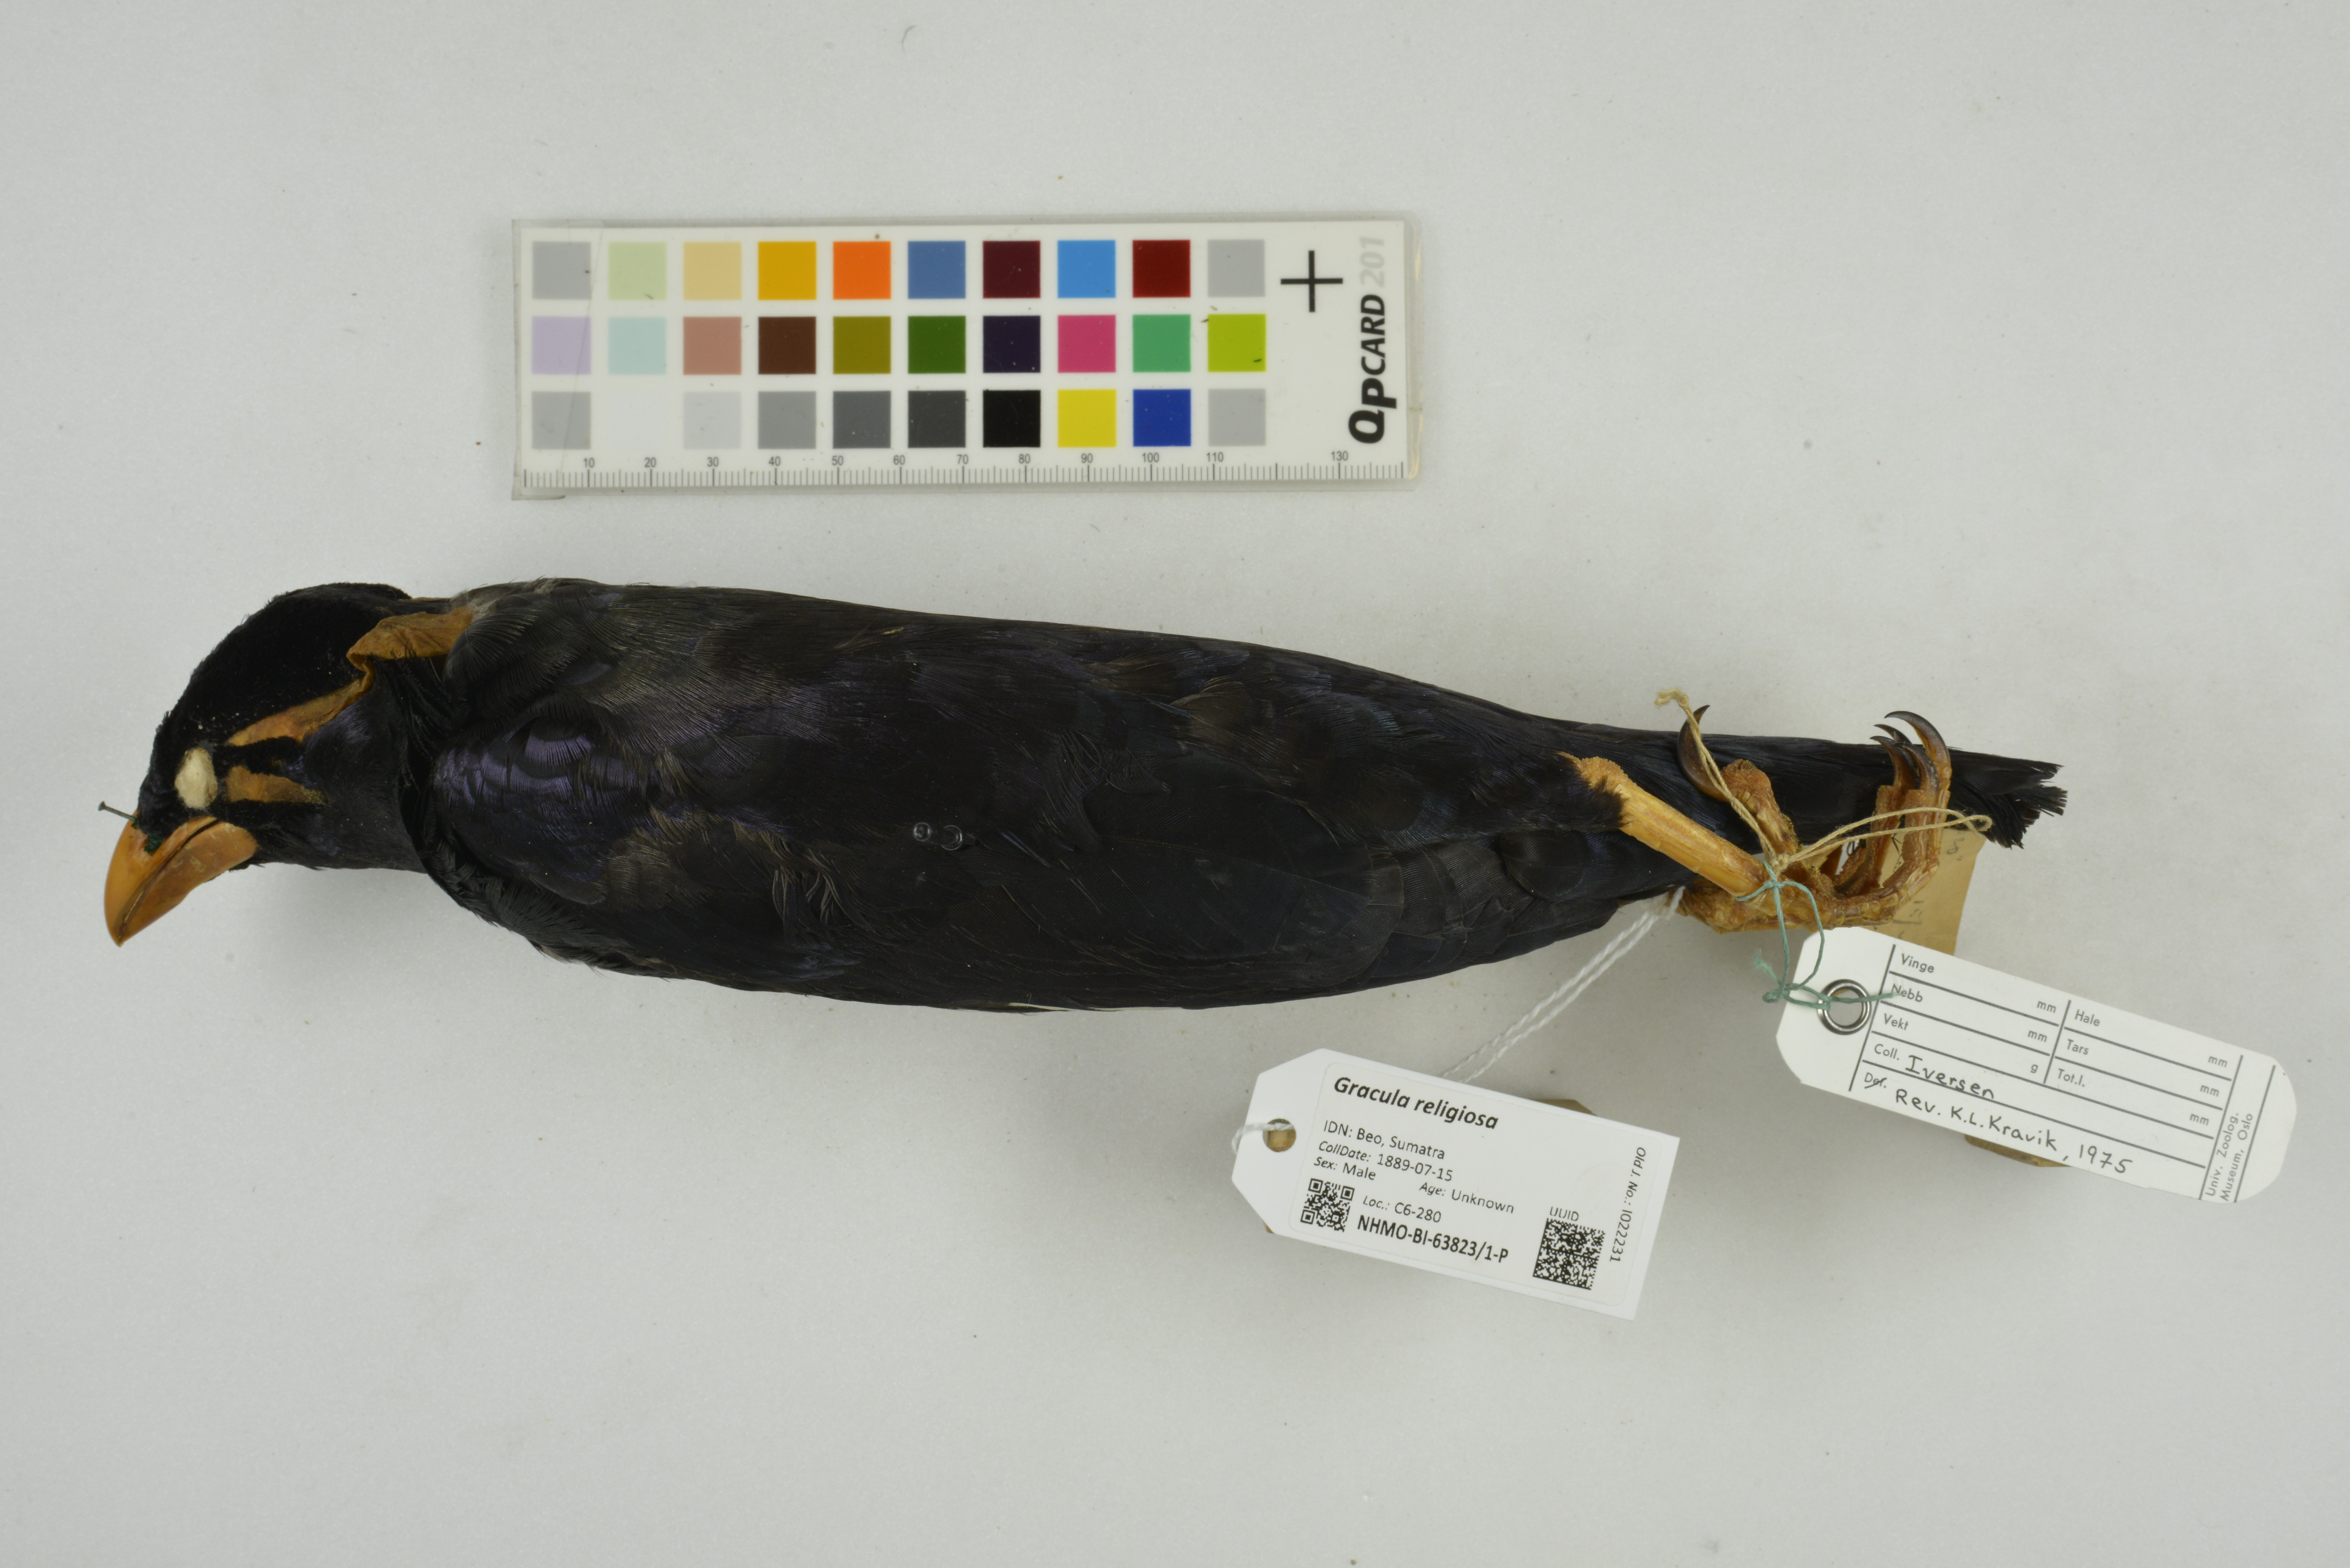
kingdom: Animalia
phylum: Chordata
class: Aves
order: Passeriformes
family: Sturnidae
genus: Gracula
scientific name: Gracula religiosa
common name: Common hill myna
